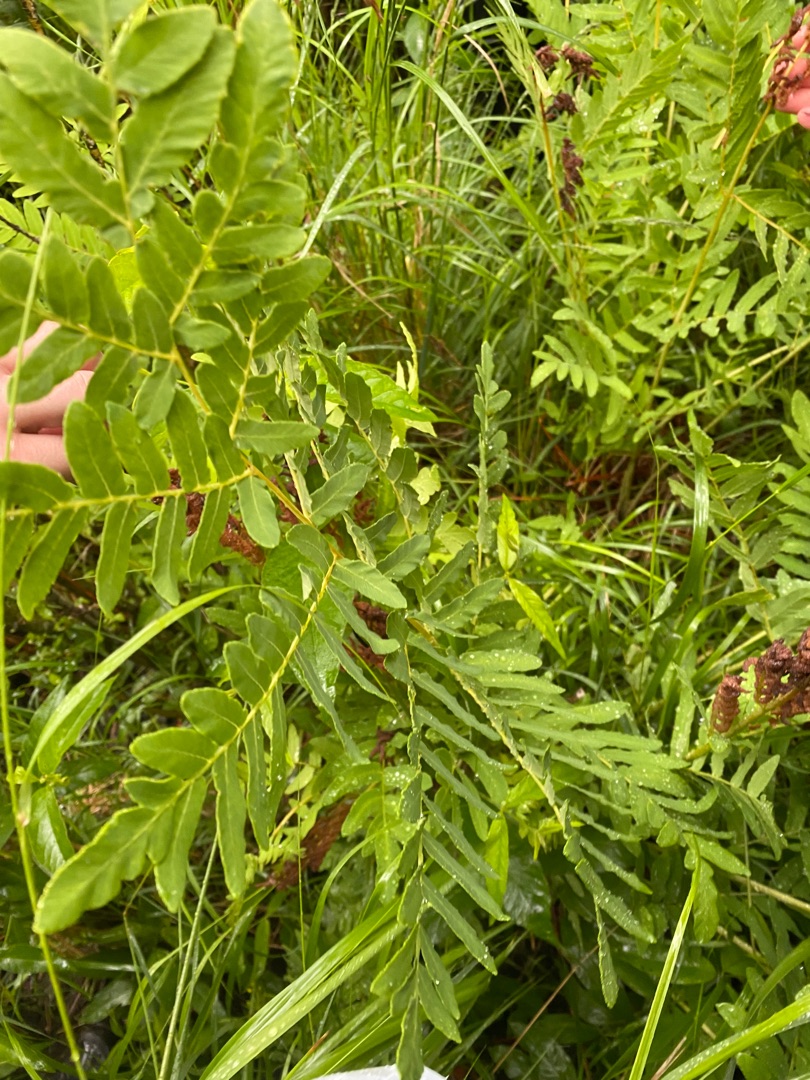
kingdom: Plantae
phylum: Tracheophyta
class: Polypodiopsida
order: Osmundales
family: Osmundaceae
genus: Osmunda
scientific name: Osmunda regalis
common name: Kongebregne
